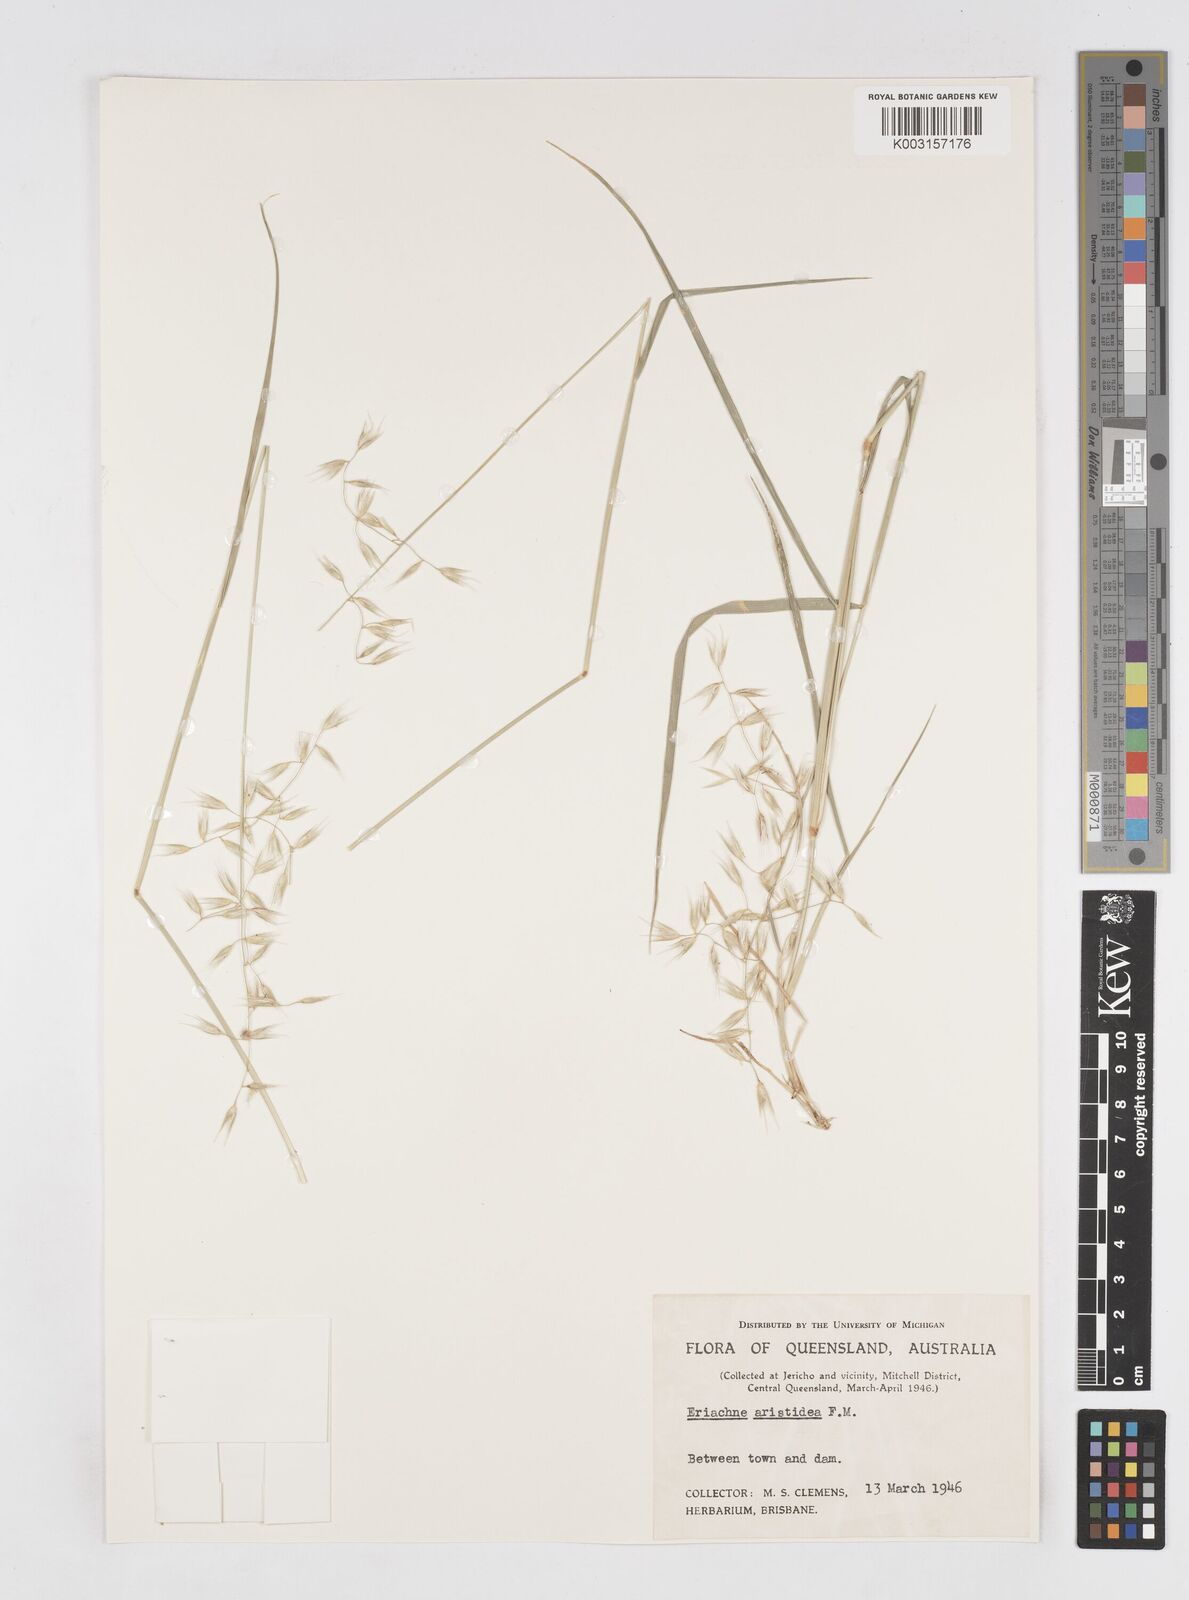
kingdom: Plantae
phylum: Tracheophyta
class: Liliopsida
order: Poales
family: Poaceae
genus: Eriachne
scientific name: Eriachne aristidea
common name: Three-awn wanderrie grass
